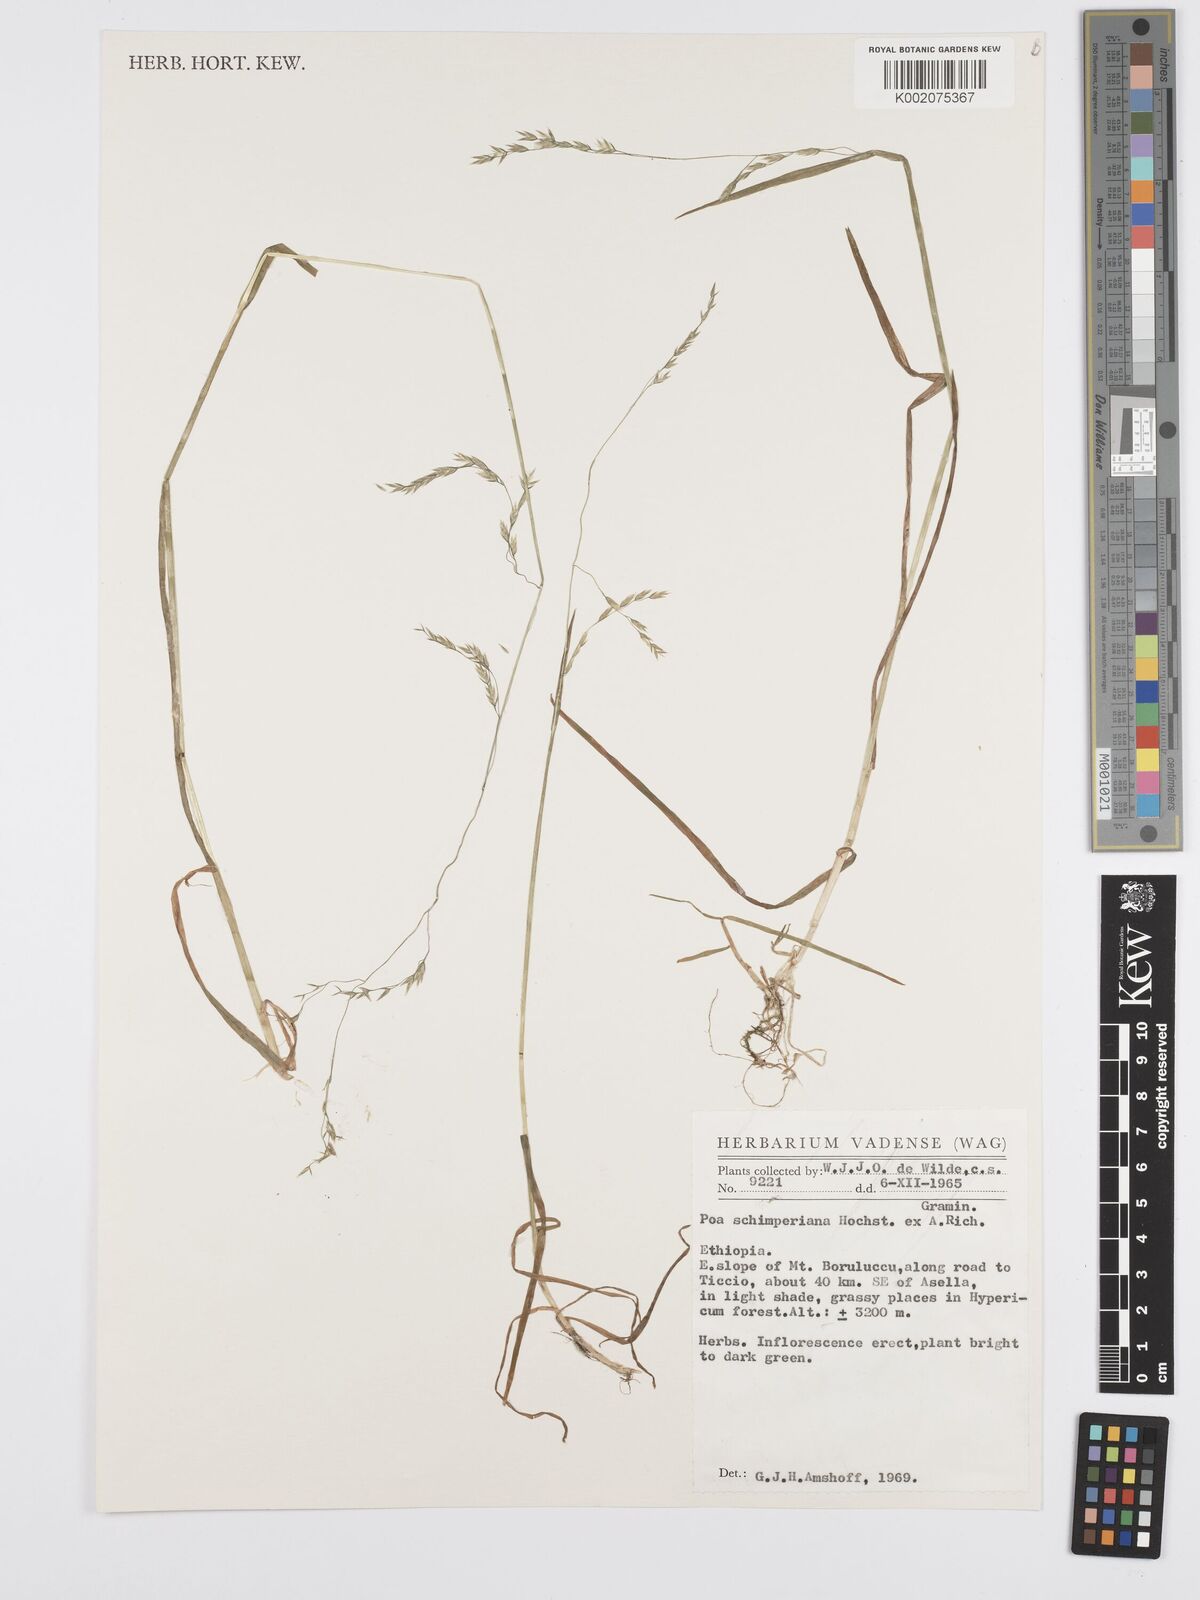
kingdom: Plantae
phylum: Tracheophyta
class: Liliopsida
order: Poales
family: Poaceae
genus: Poa
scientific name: Poa schimperiana
